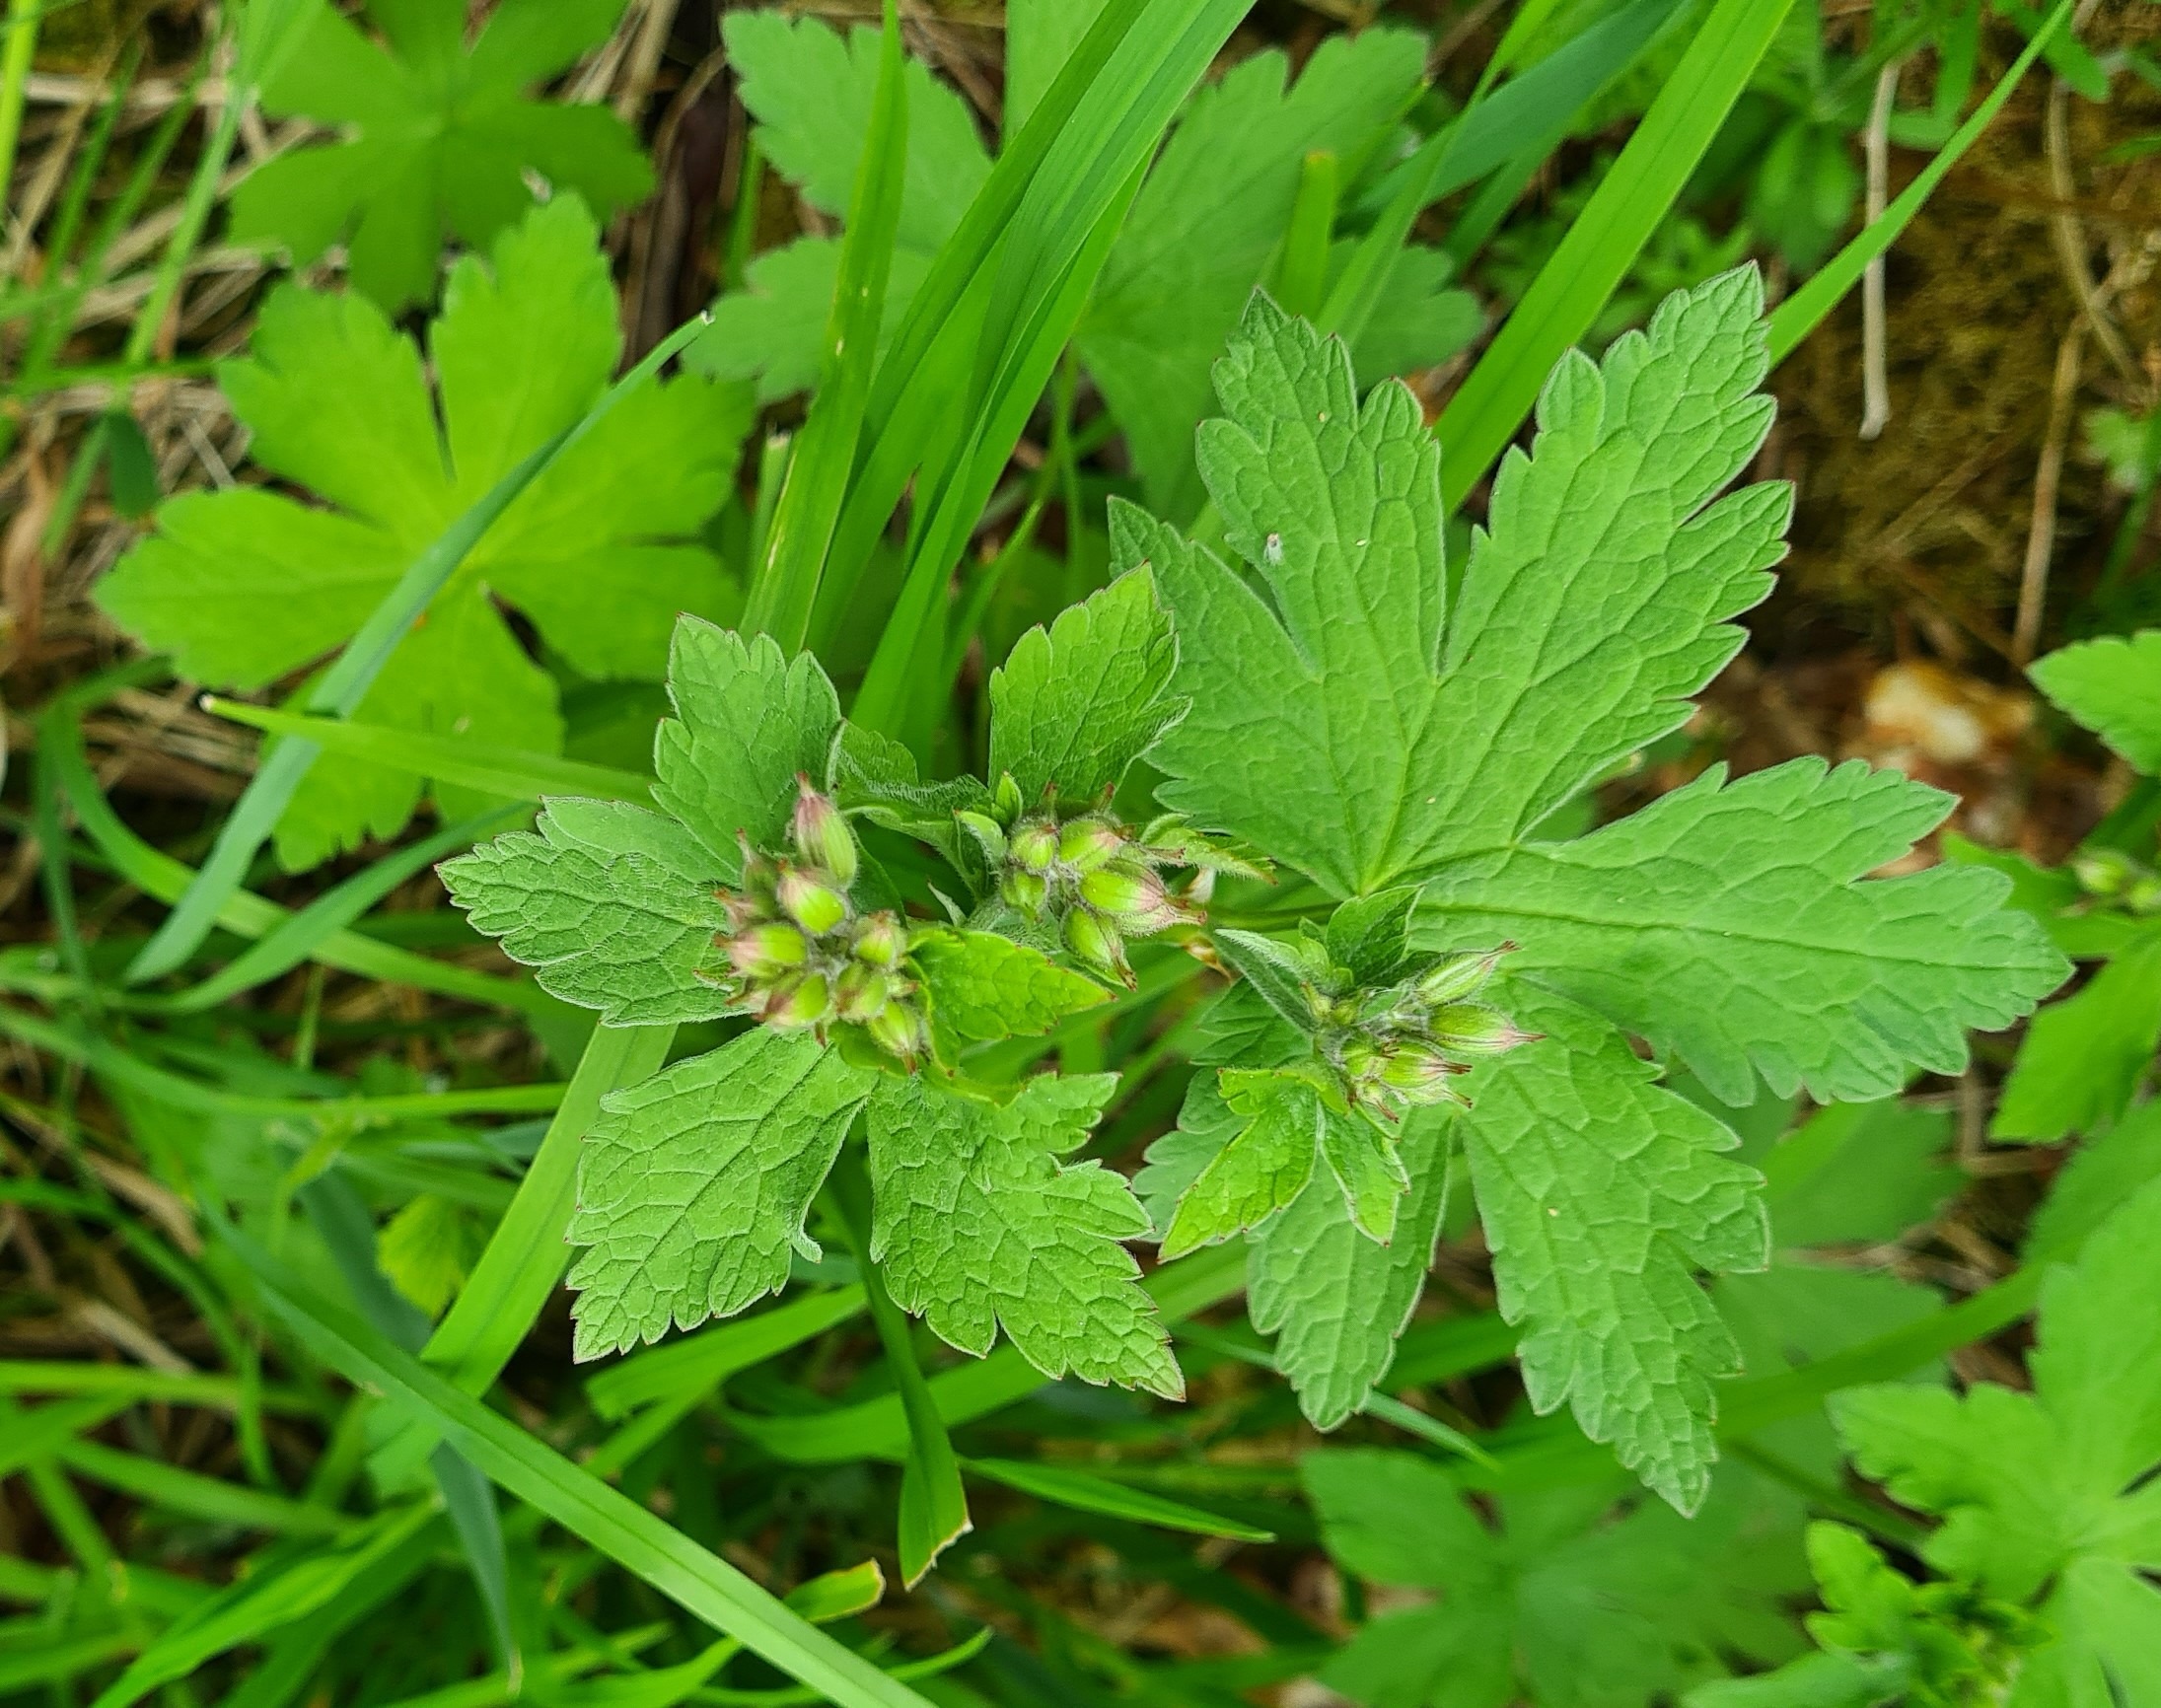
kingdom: Plantae
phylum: Tracheophyta
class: Magnoliopsida
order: Geraniales
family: Geraniaceae
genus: Geranium
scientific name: Geranium sylvaticum
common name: Skov-storkenæb
